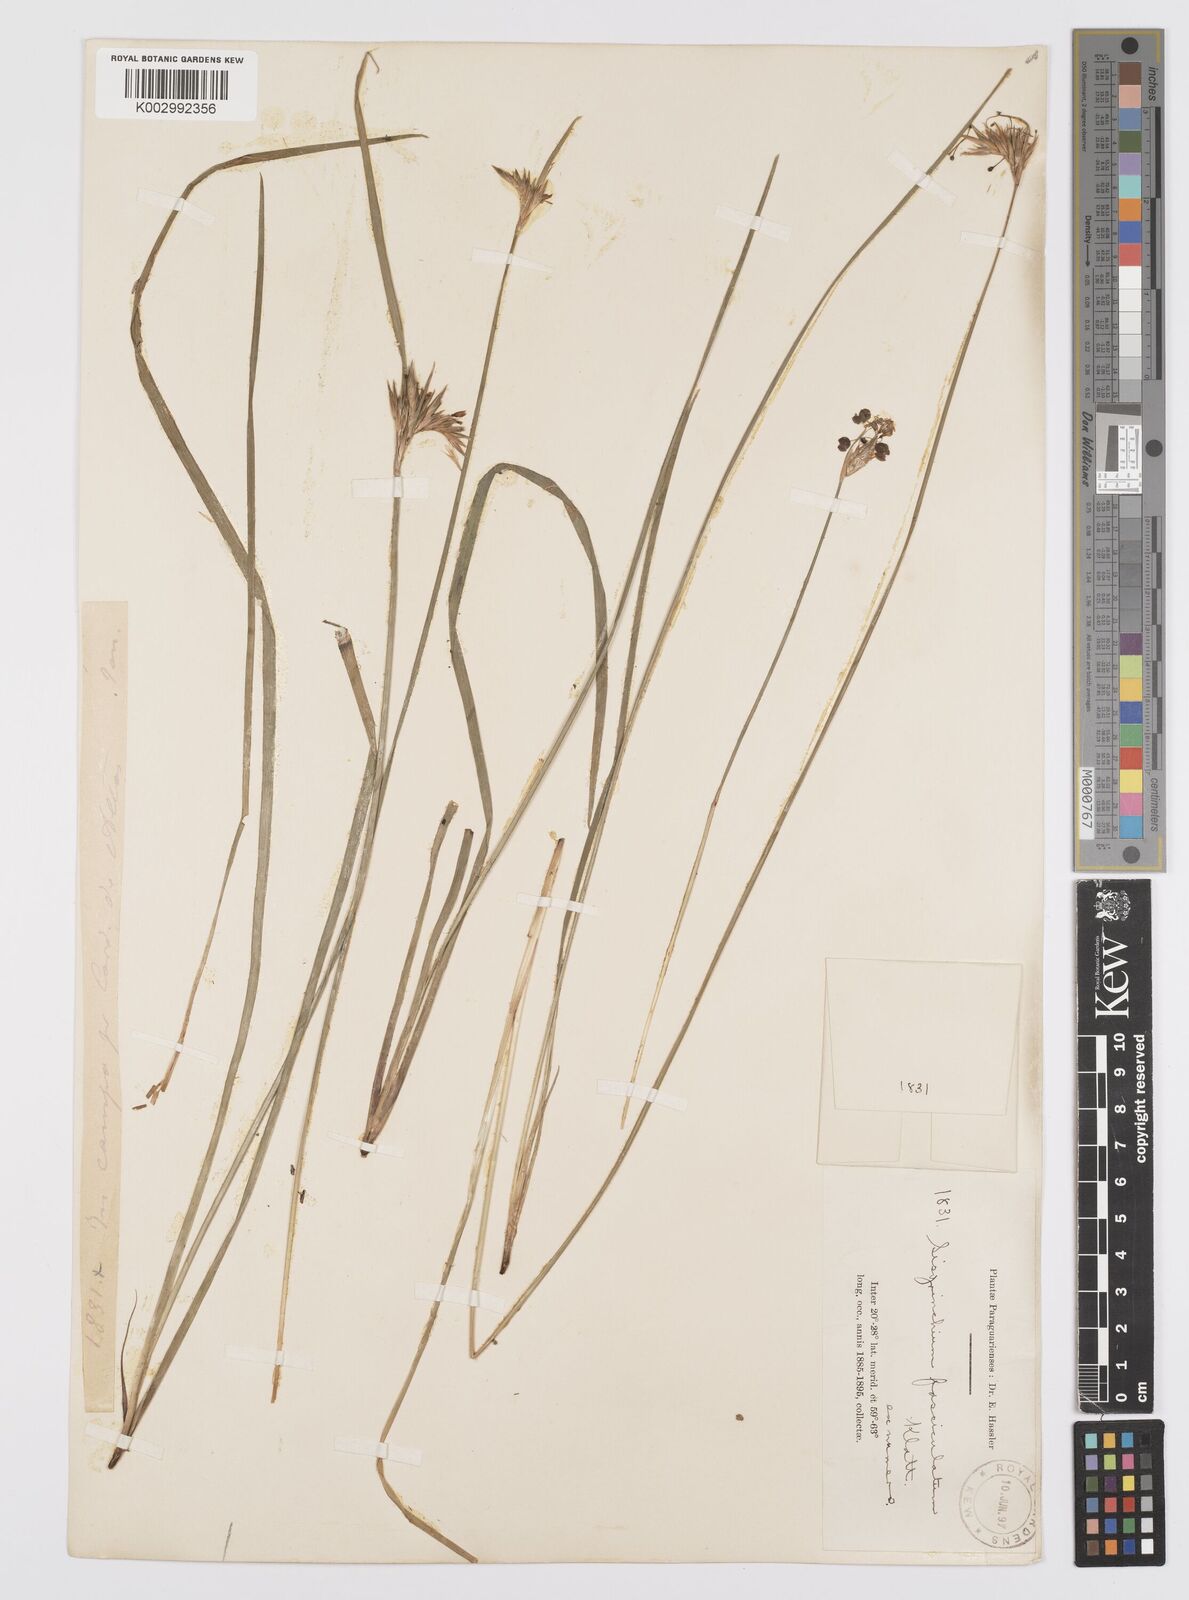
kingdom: Plantae
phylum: Tracheophyta
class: Liliopsida
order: Asparagales
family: Iridaceae
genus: Sisyrinchium
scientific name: Sisyrinchium fasciculatum
